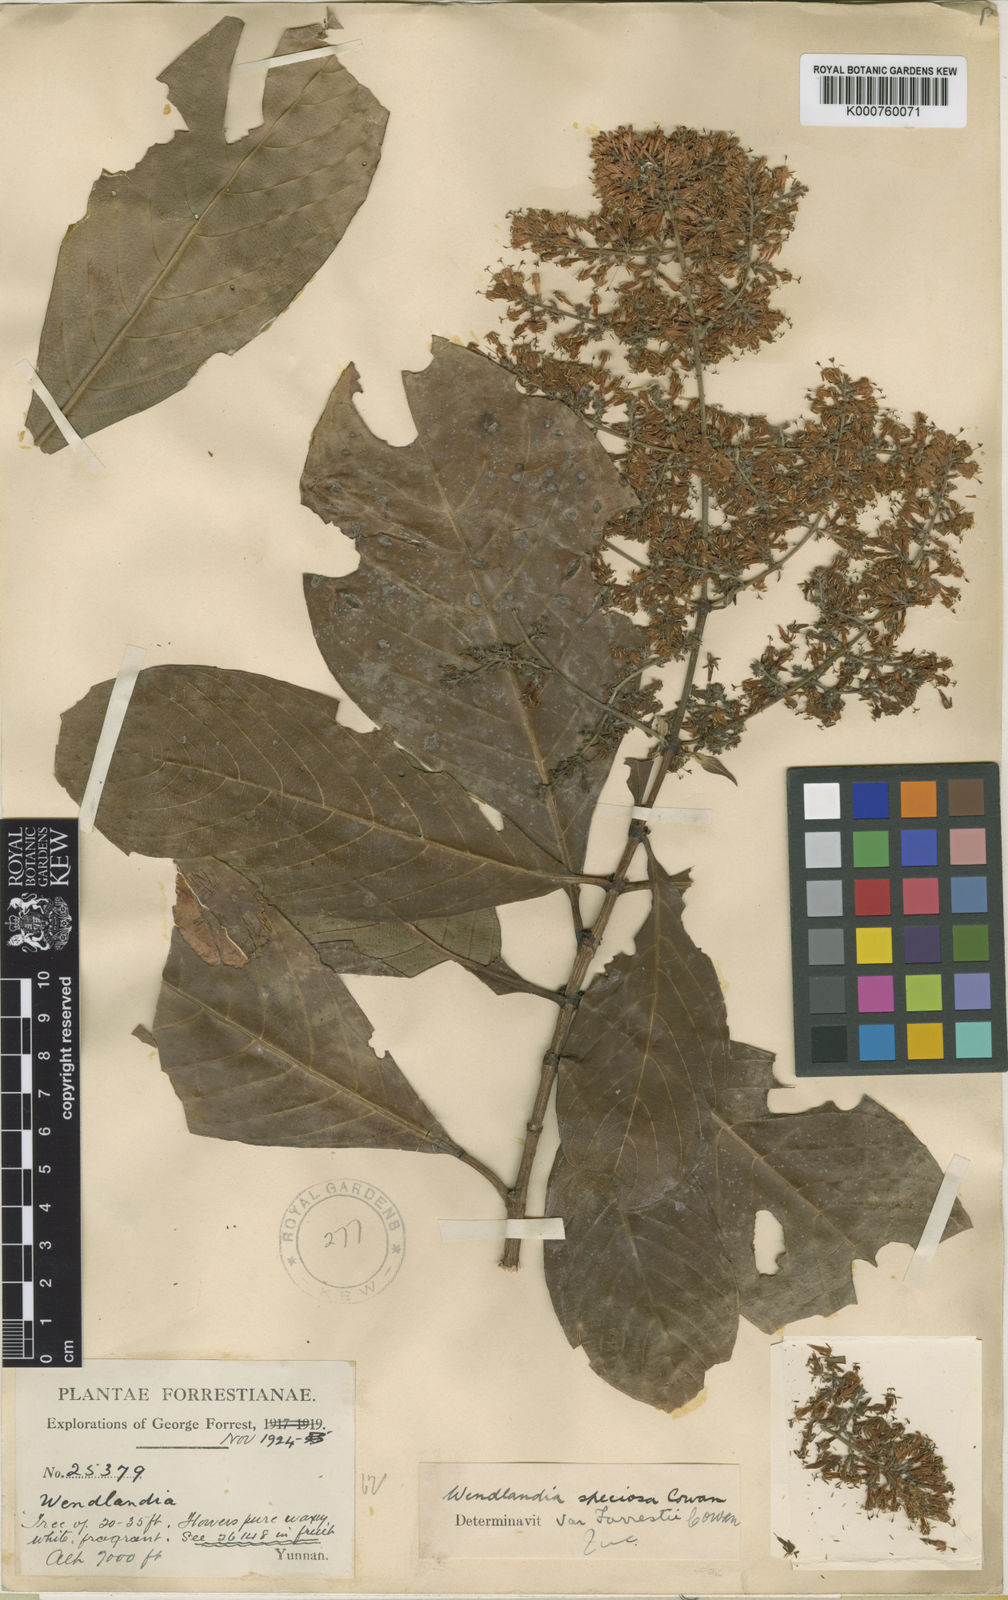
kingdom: Plantae
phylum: Tracheophyta
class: Magnoliopsida
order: Gentianales
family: Rubiaceae
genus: Wendlandia
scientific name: Wendlandia speciosa
